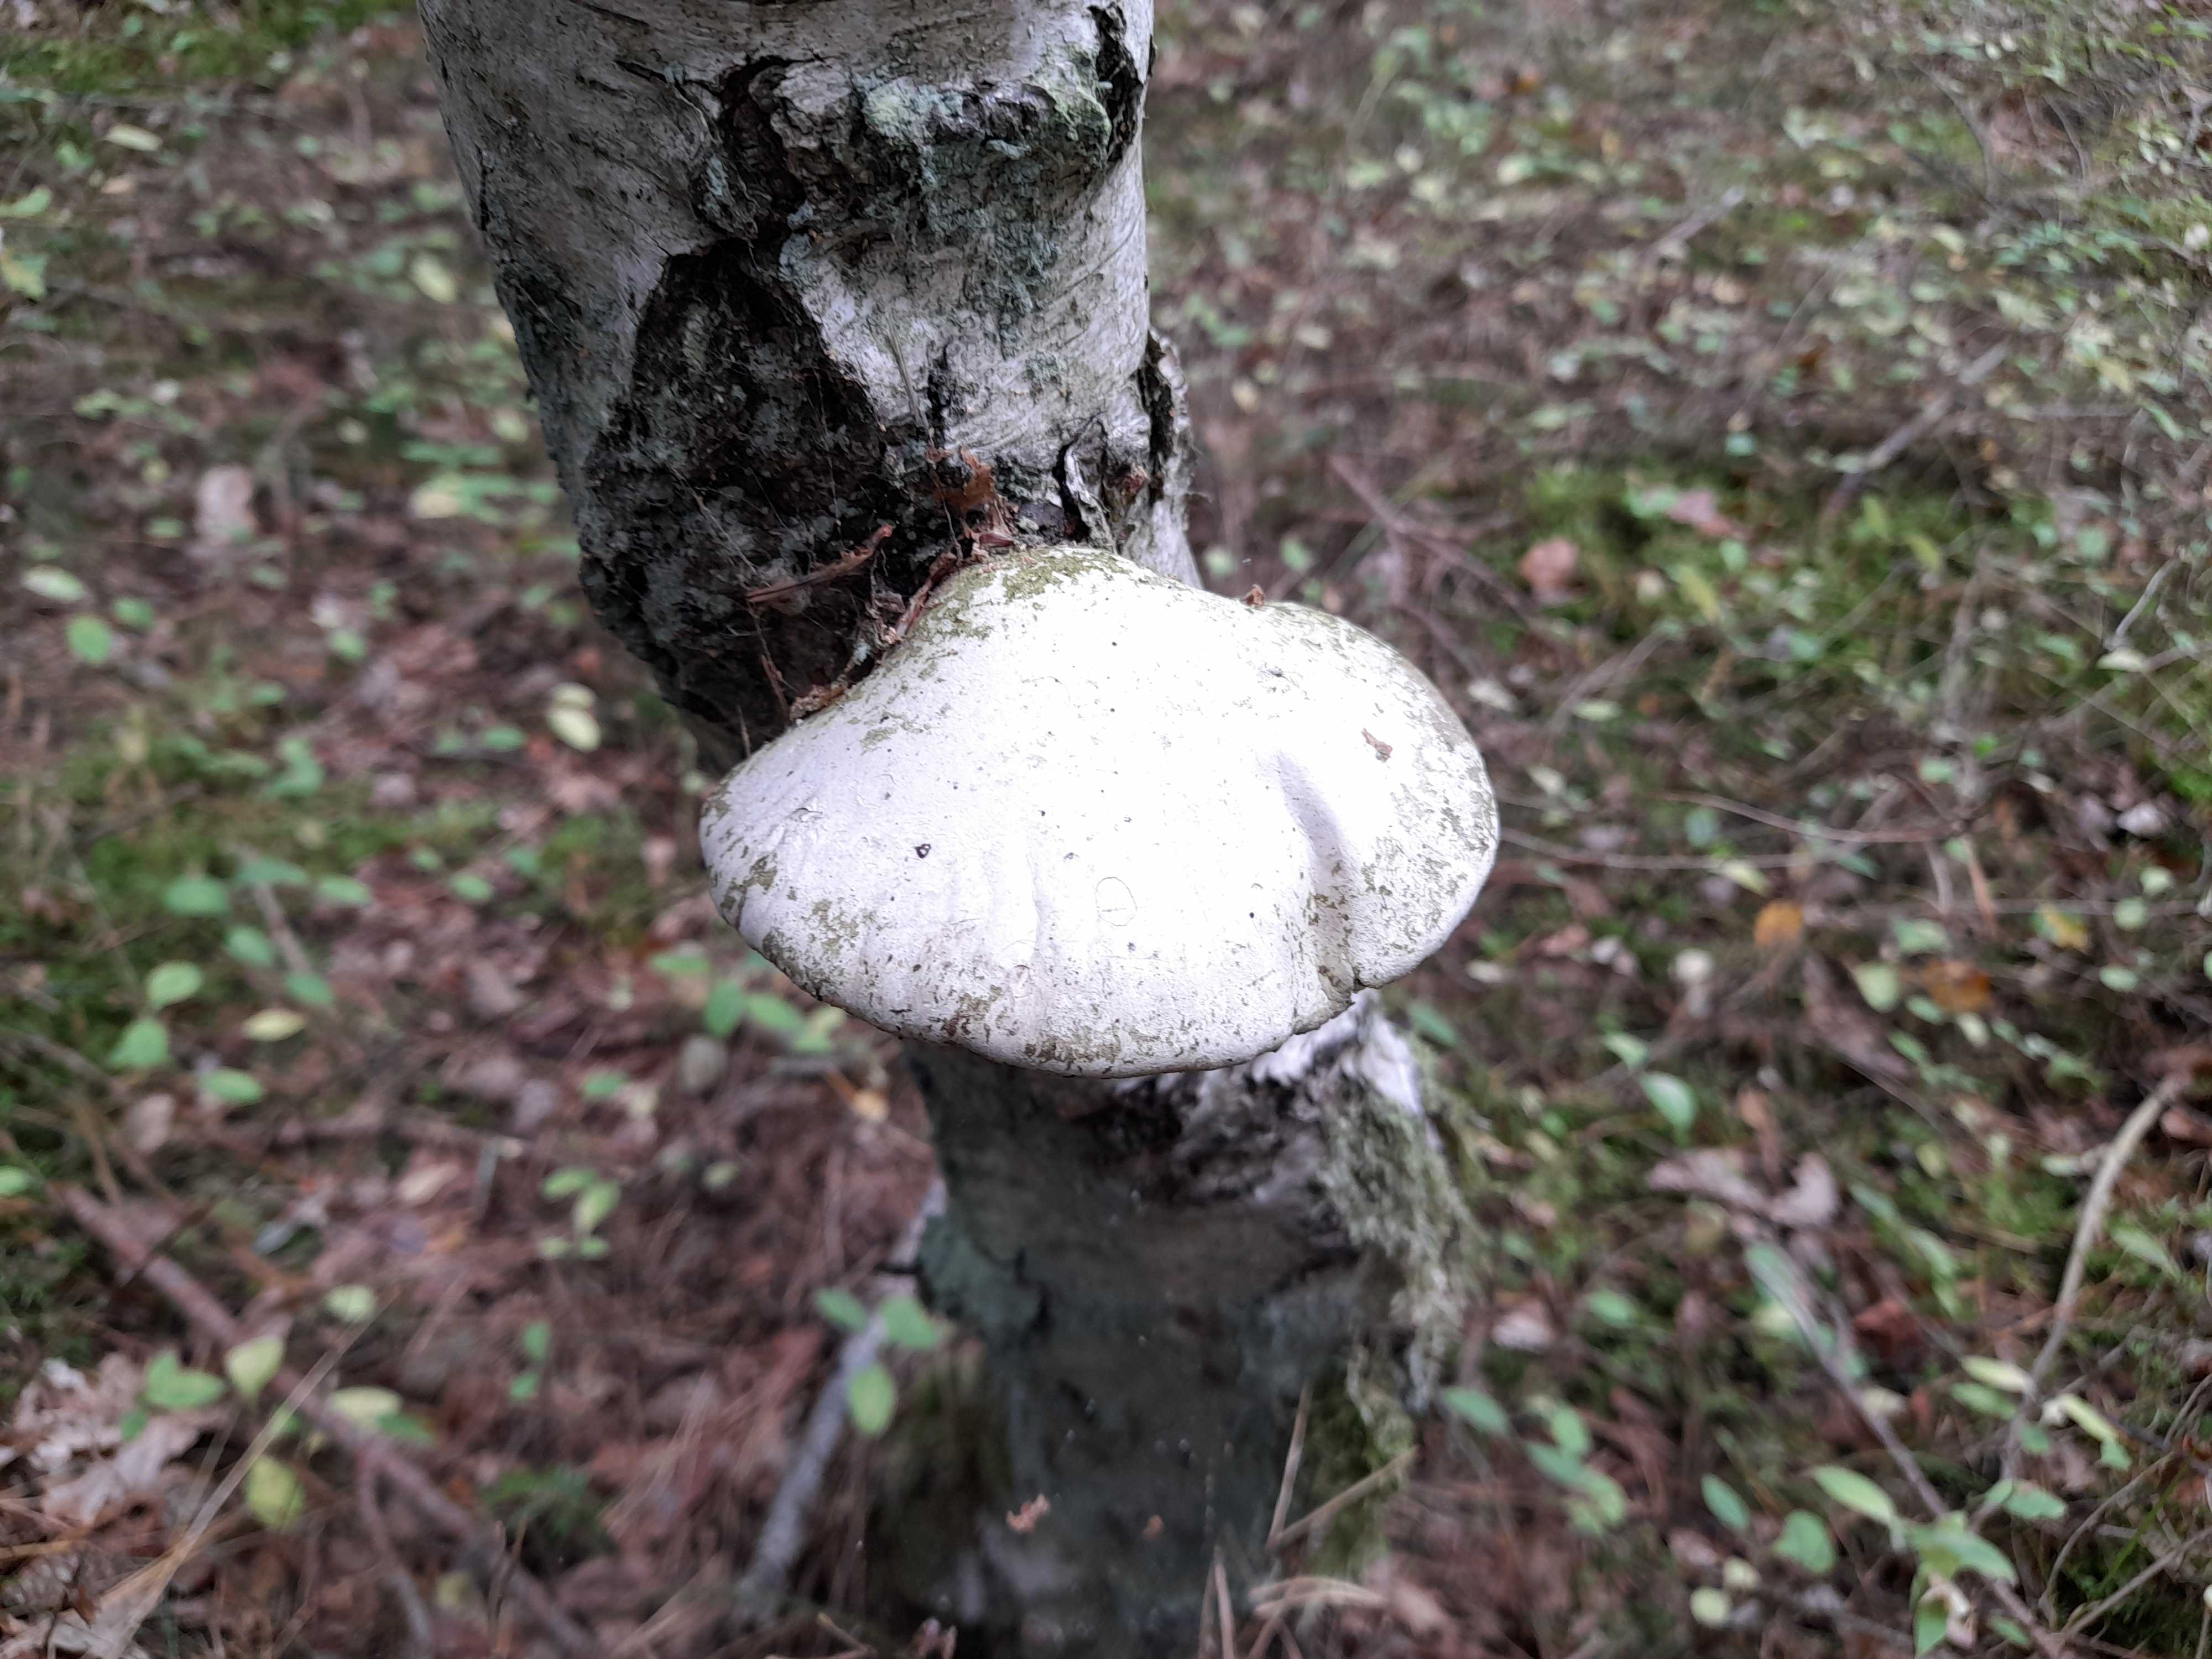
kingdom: Fungi
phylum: Basidiomycota
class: Agaricomycetes
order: Polyporales
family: Fomitopsidaceae
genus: Fomitopsis
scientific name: Fomitopsis betulina
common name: birkeporesvamp
